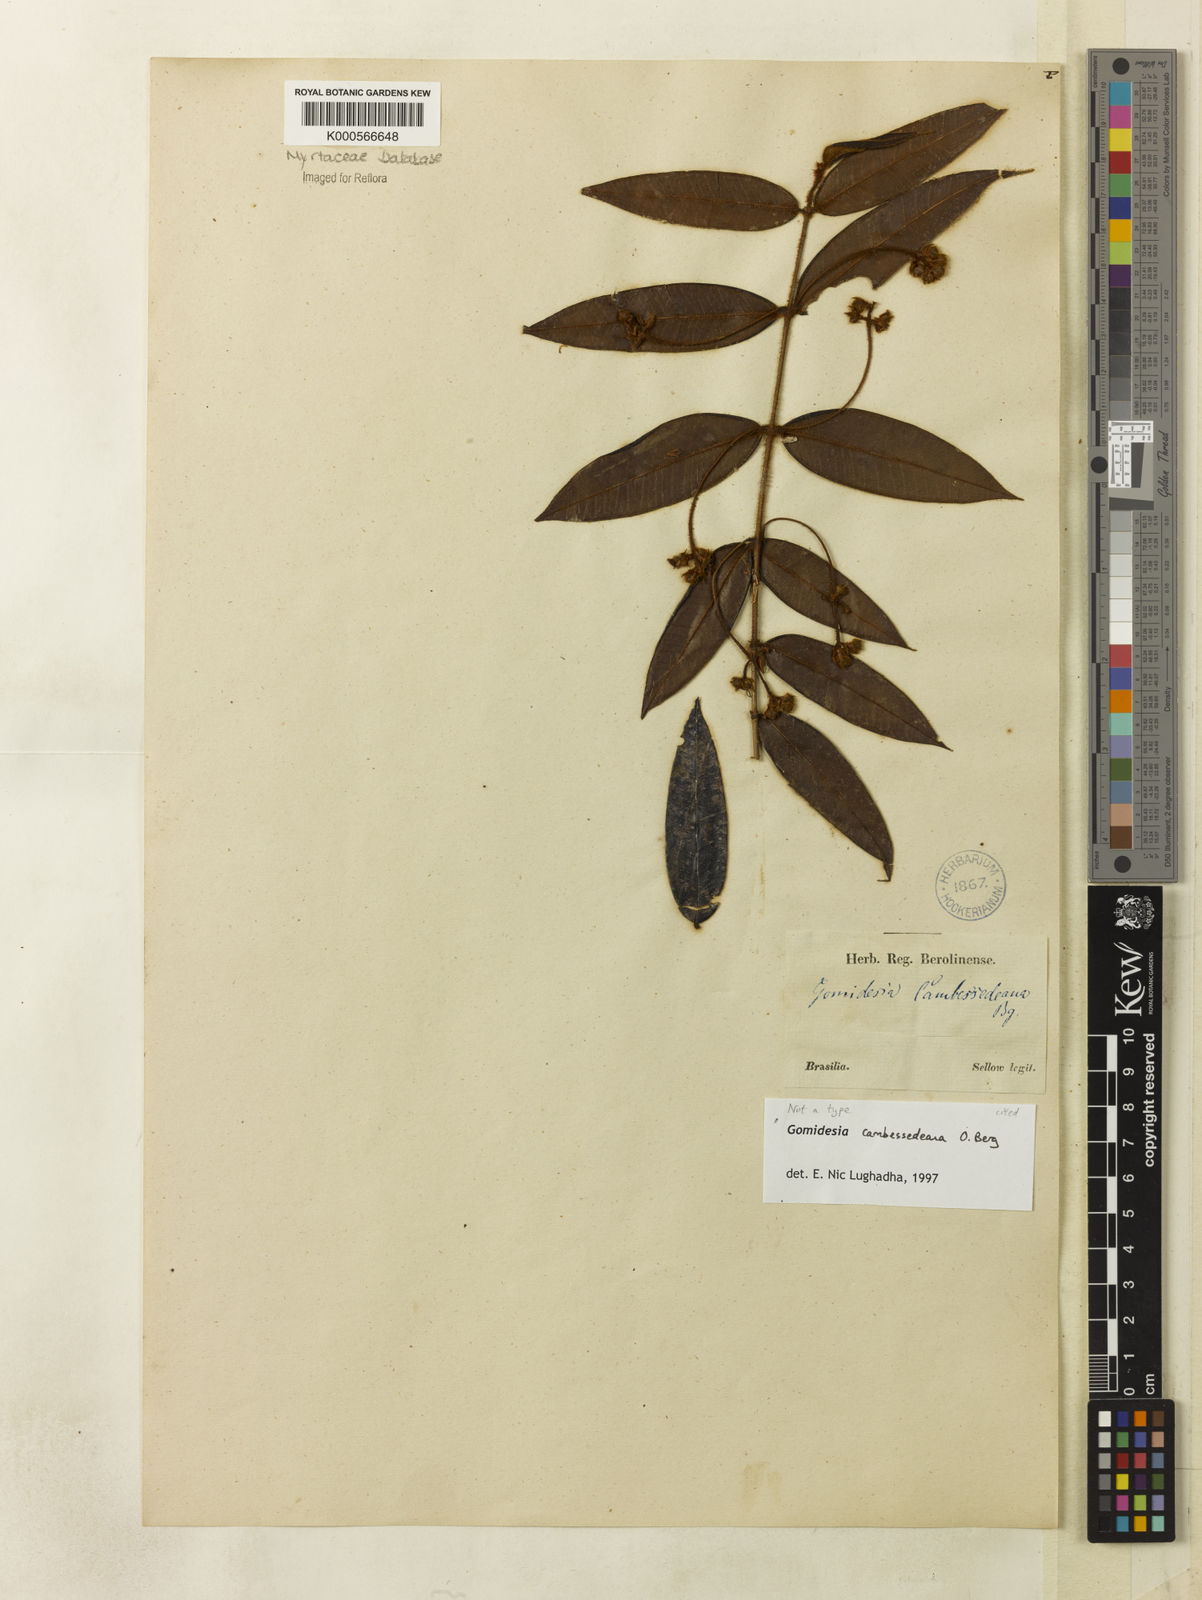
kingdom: Plantae
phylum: Tracheophyta
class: Magnoliopsida
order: Myrtales
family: Myrtaceae
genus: Myrcia
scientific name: Myrcia neocambessedeana
